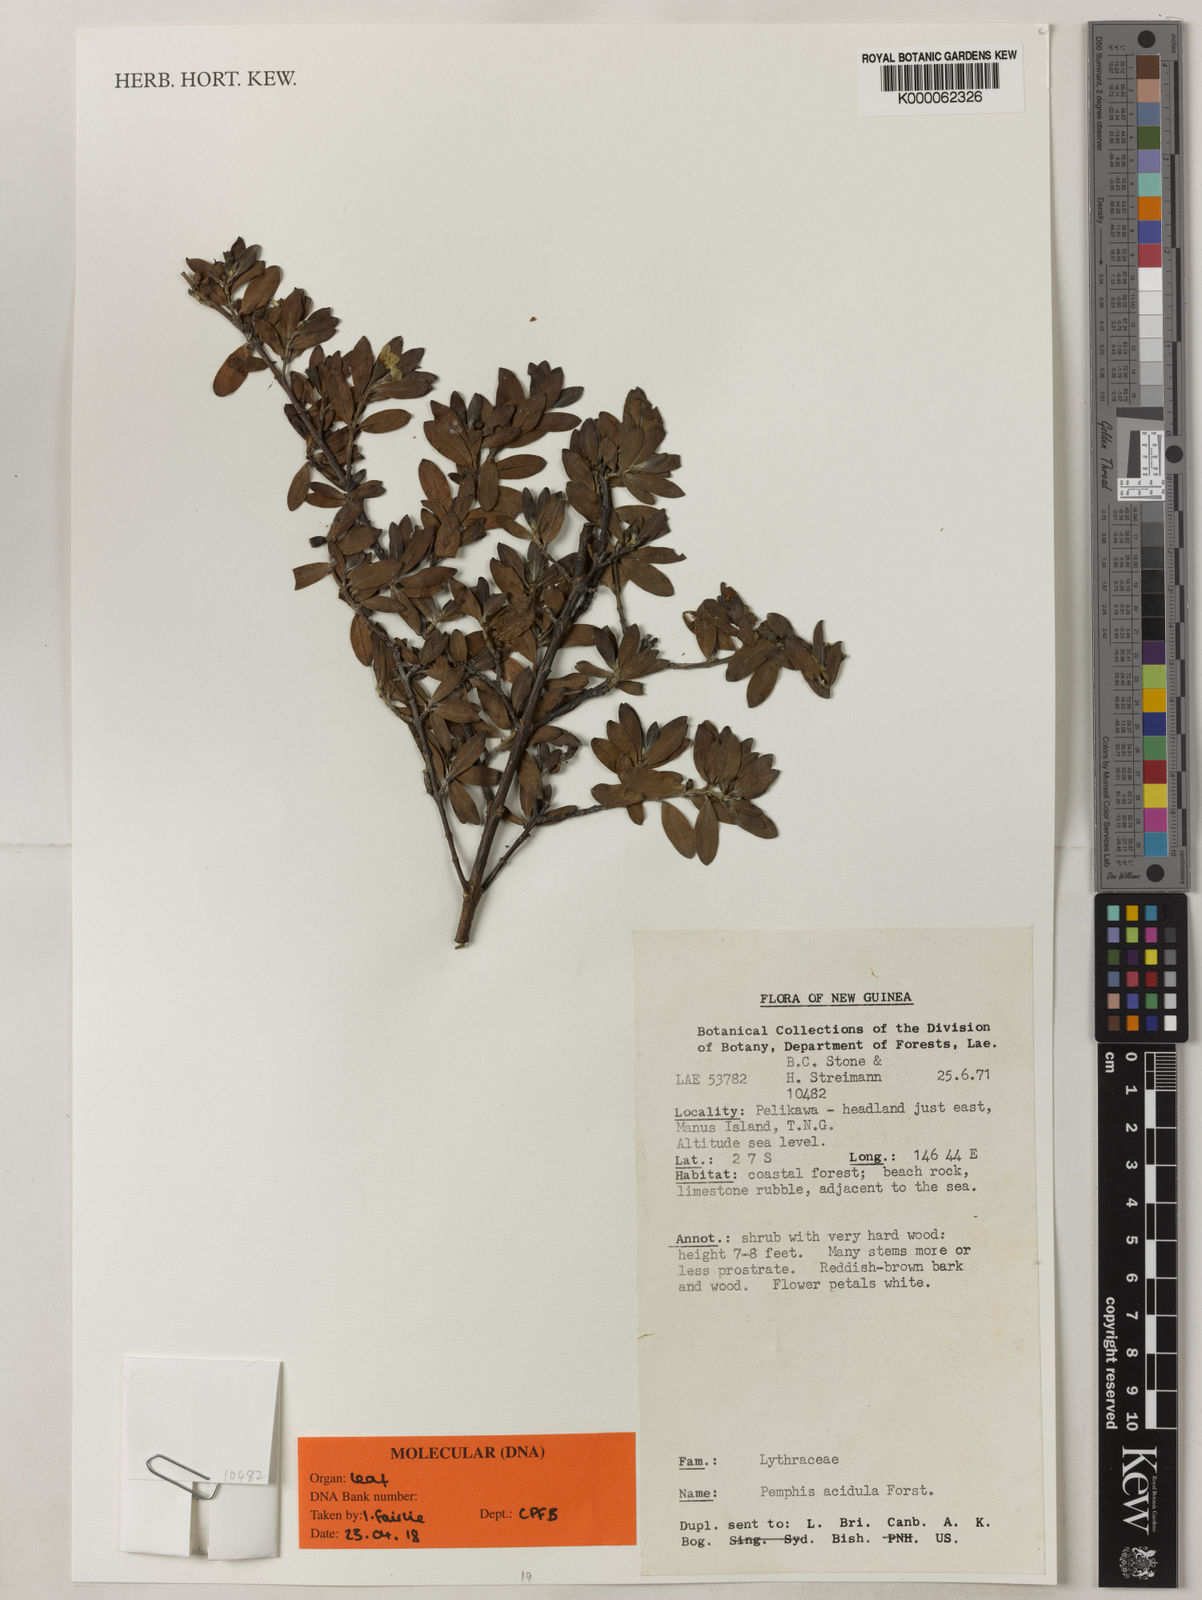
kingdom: Plantae
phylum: Tracheophyta
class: Magnoliopsida
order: Myrtales
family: Lythraceae
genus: Pemphis
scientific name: Pemphis acidula
